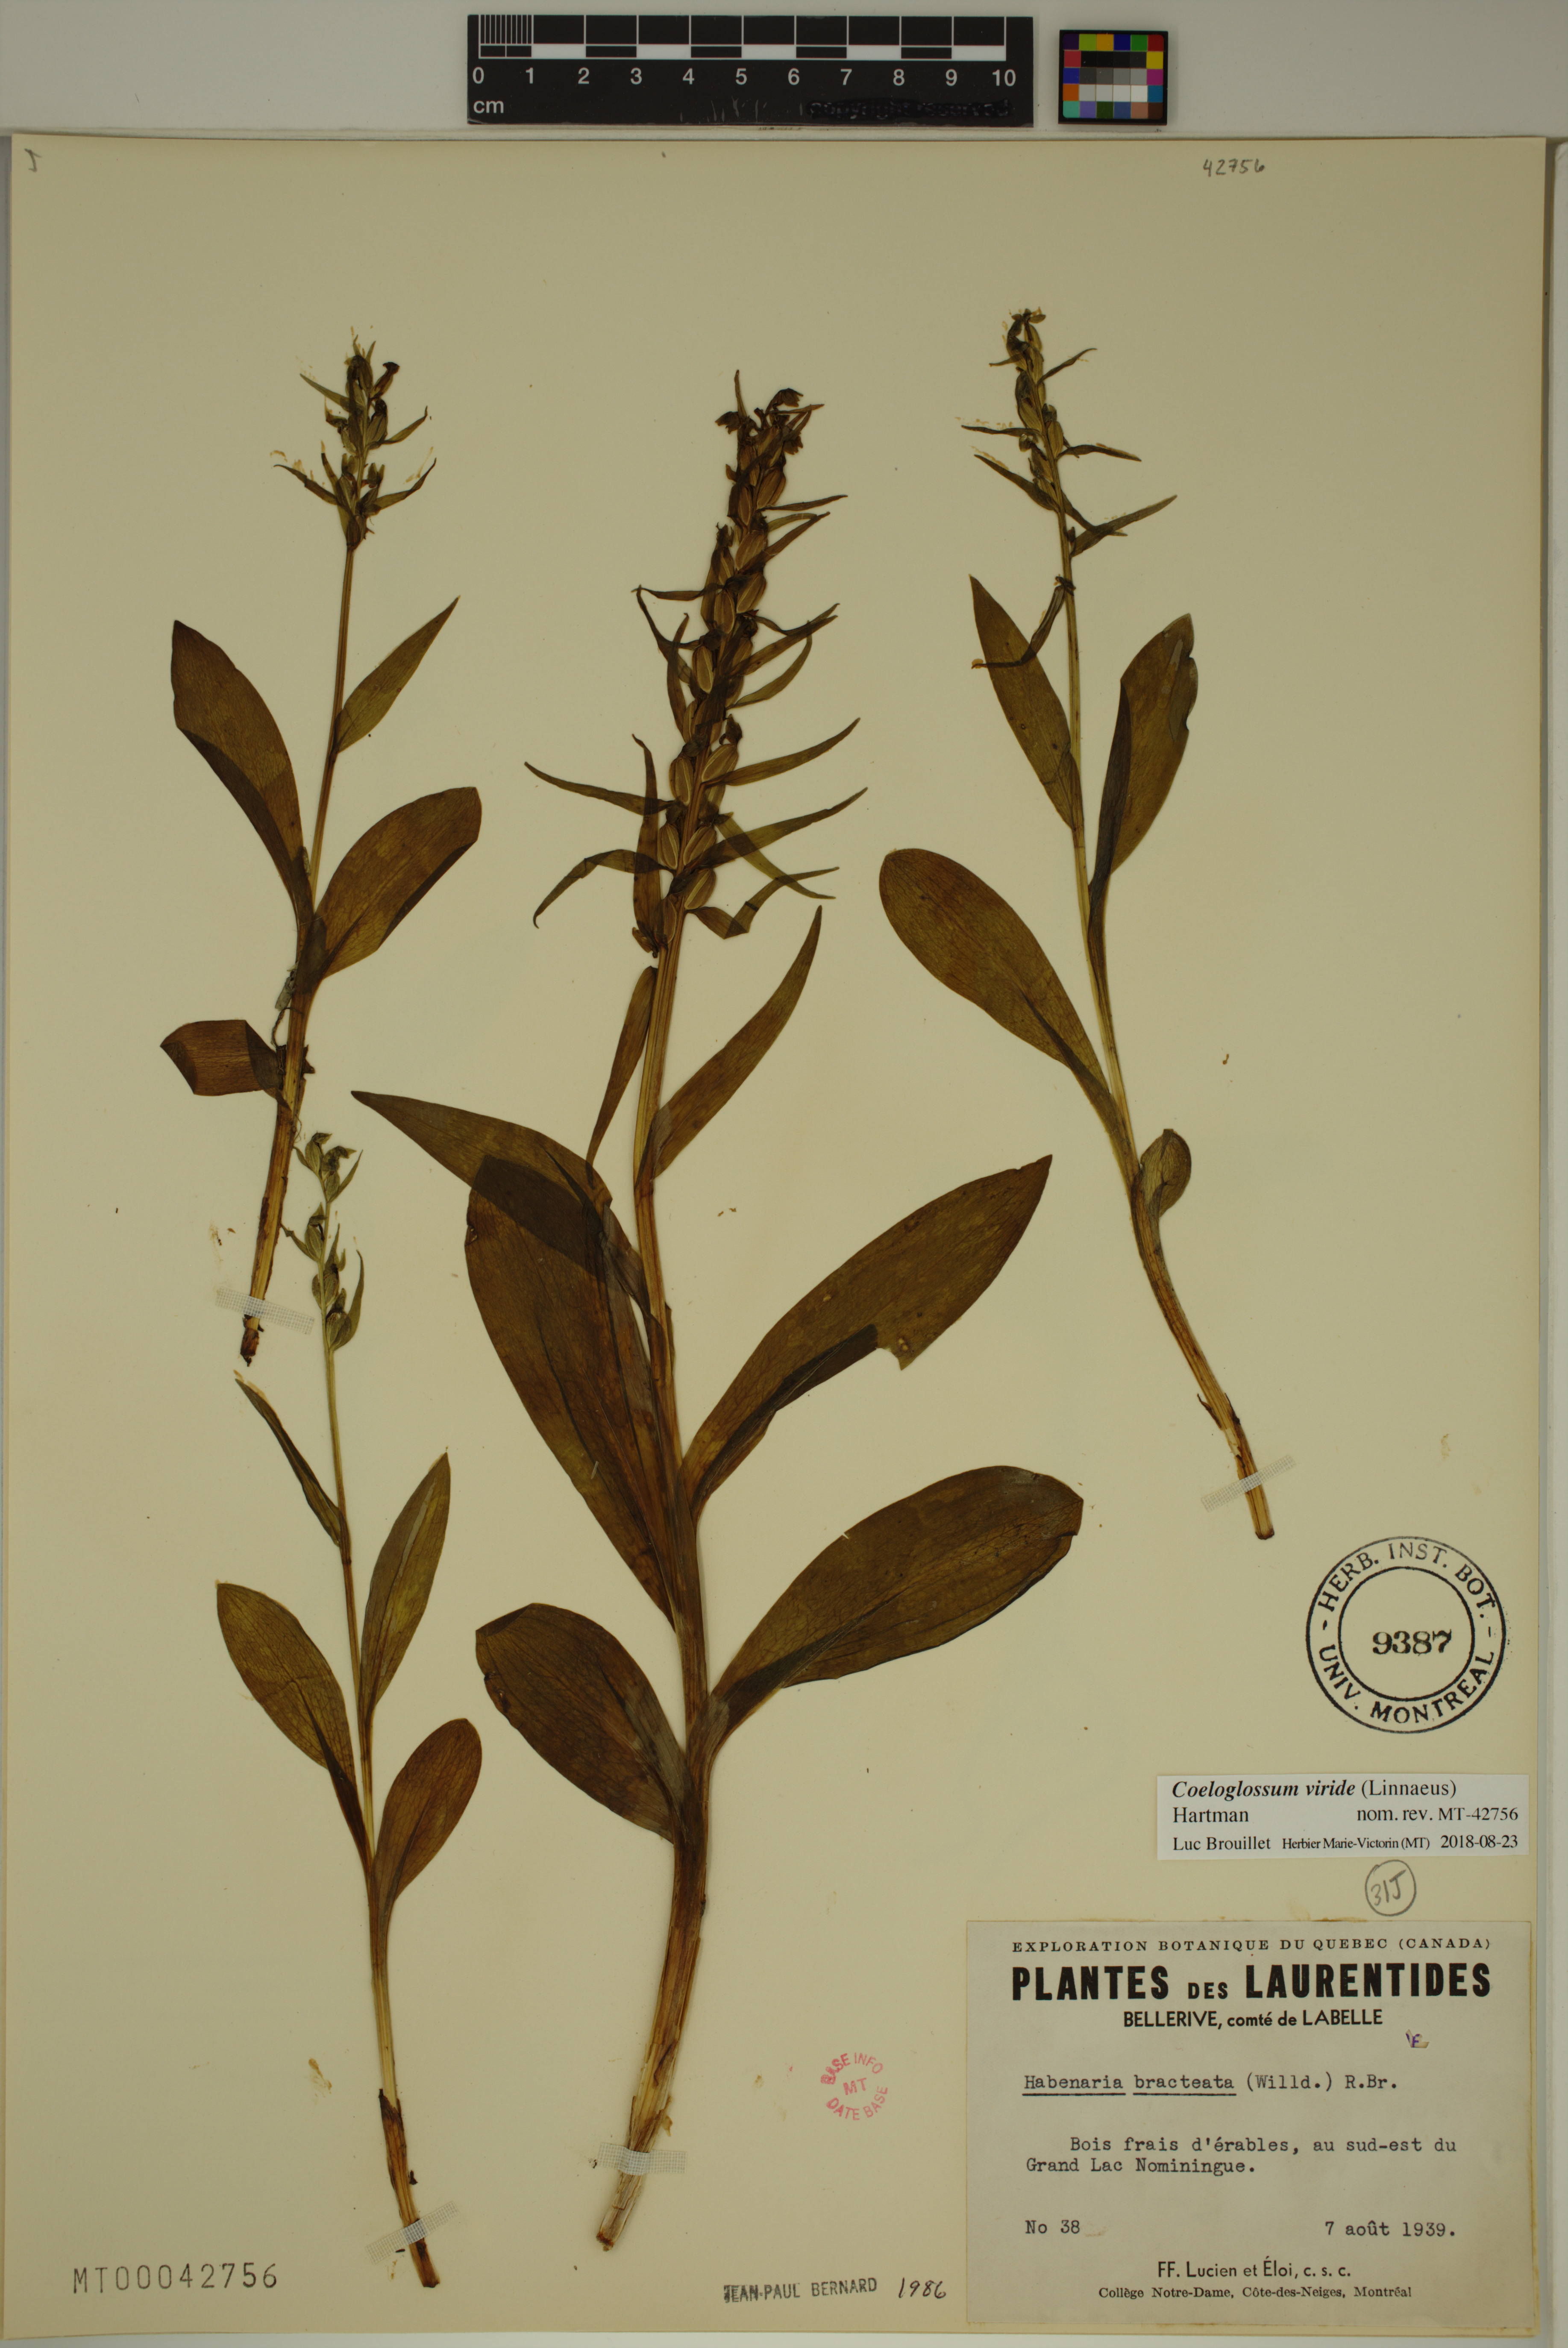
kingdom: Plantae
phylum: Tracheophyta
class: Liliopsida
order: Asparagales
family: Orchidaceae
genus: Dactylorhiza
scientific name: Dactylorhiza viridis
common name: Longbract frog orchid
